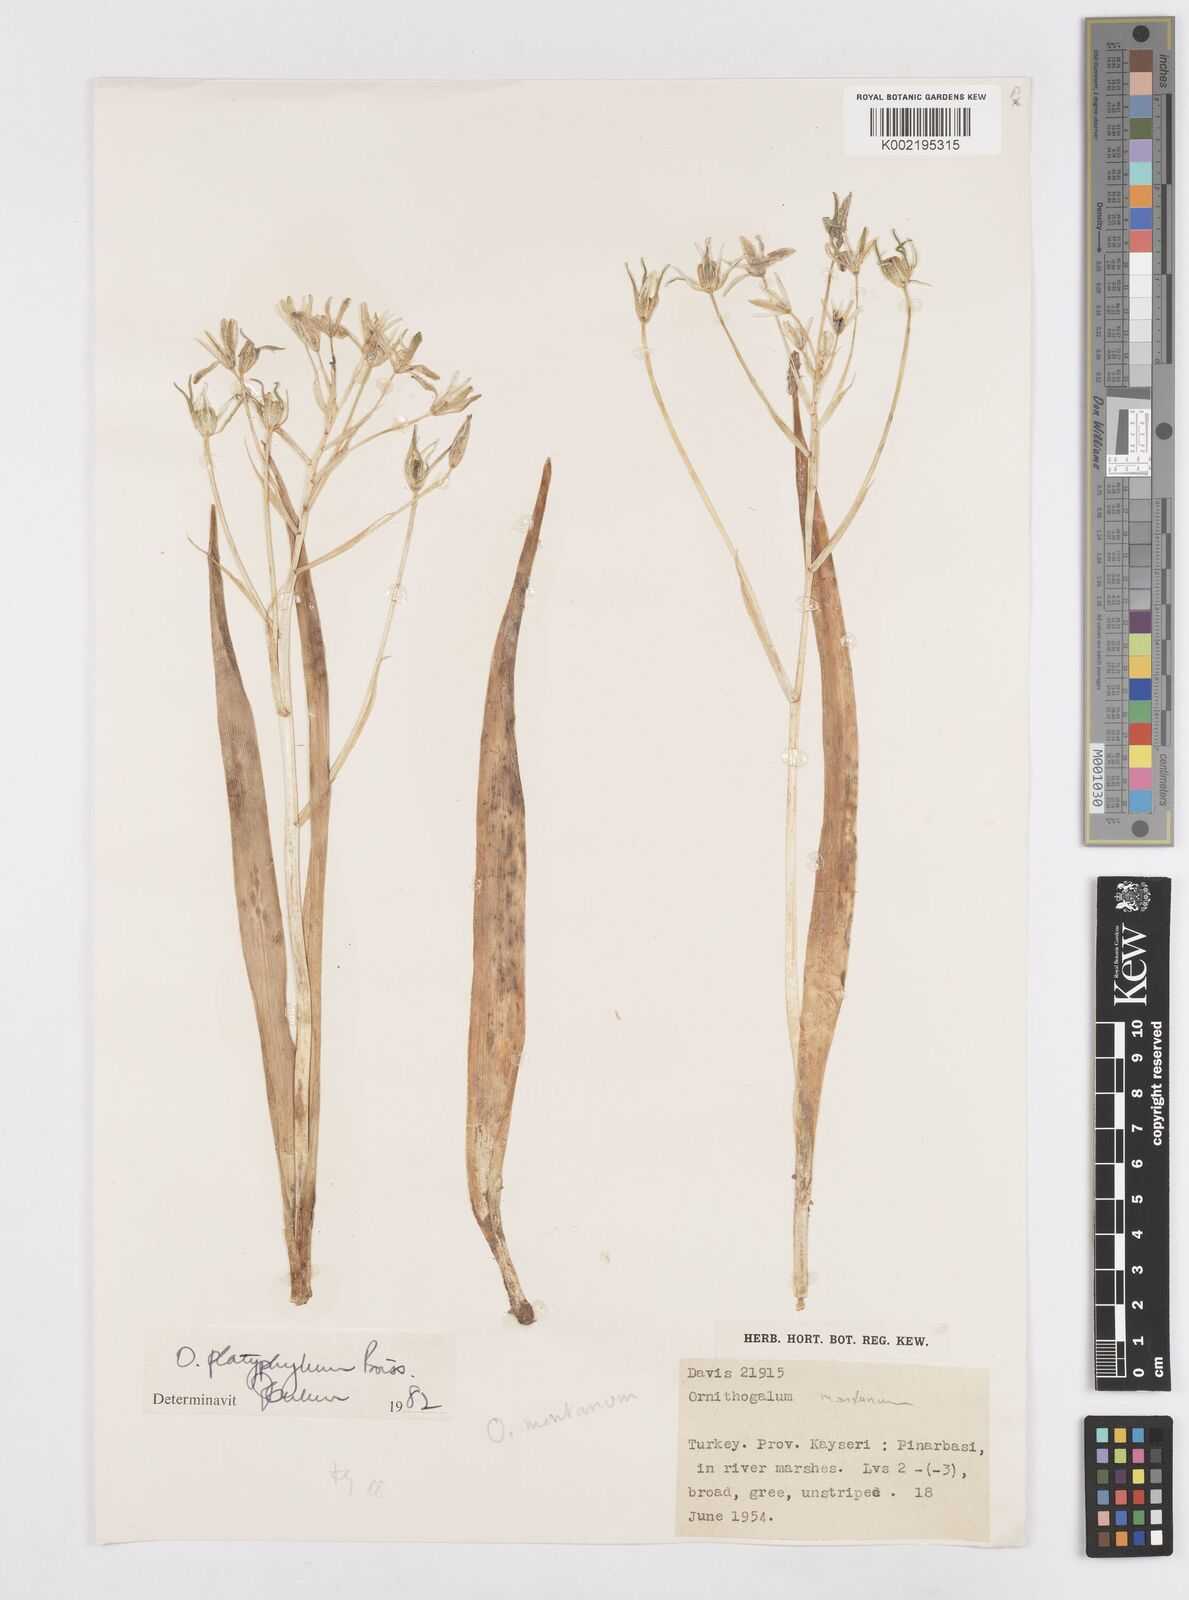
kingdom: Plantae
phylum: Tracheophyta
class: Liliopsida
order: Asparagales
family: Asparagaceae
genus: Ornithogalum
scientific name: Ornithogalum montanum
